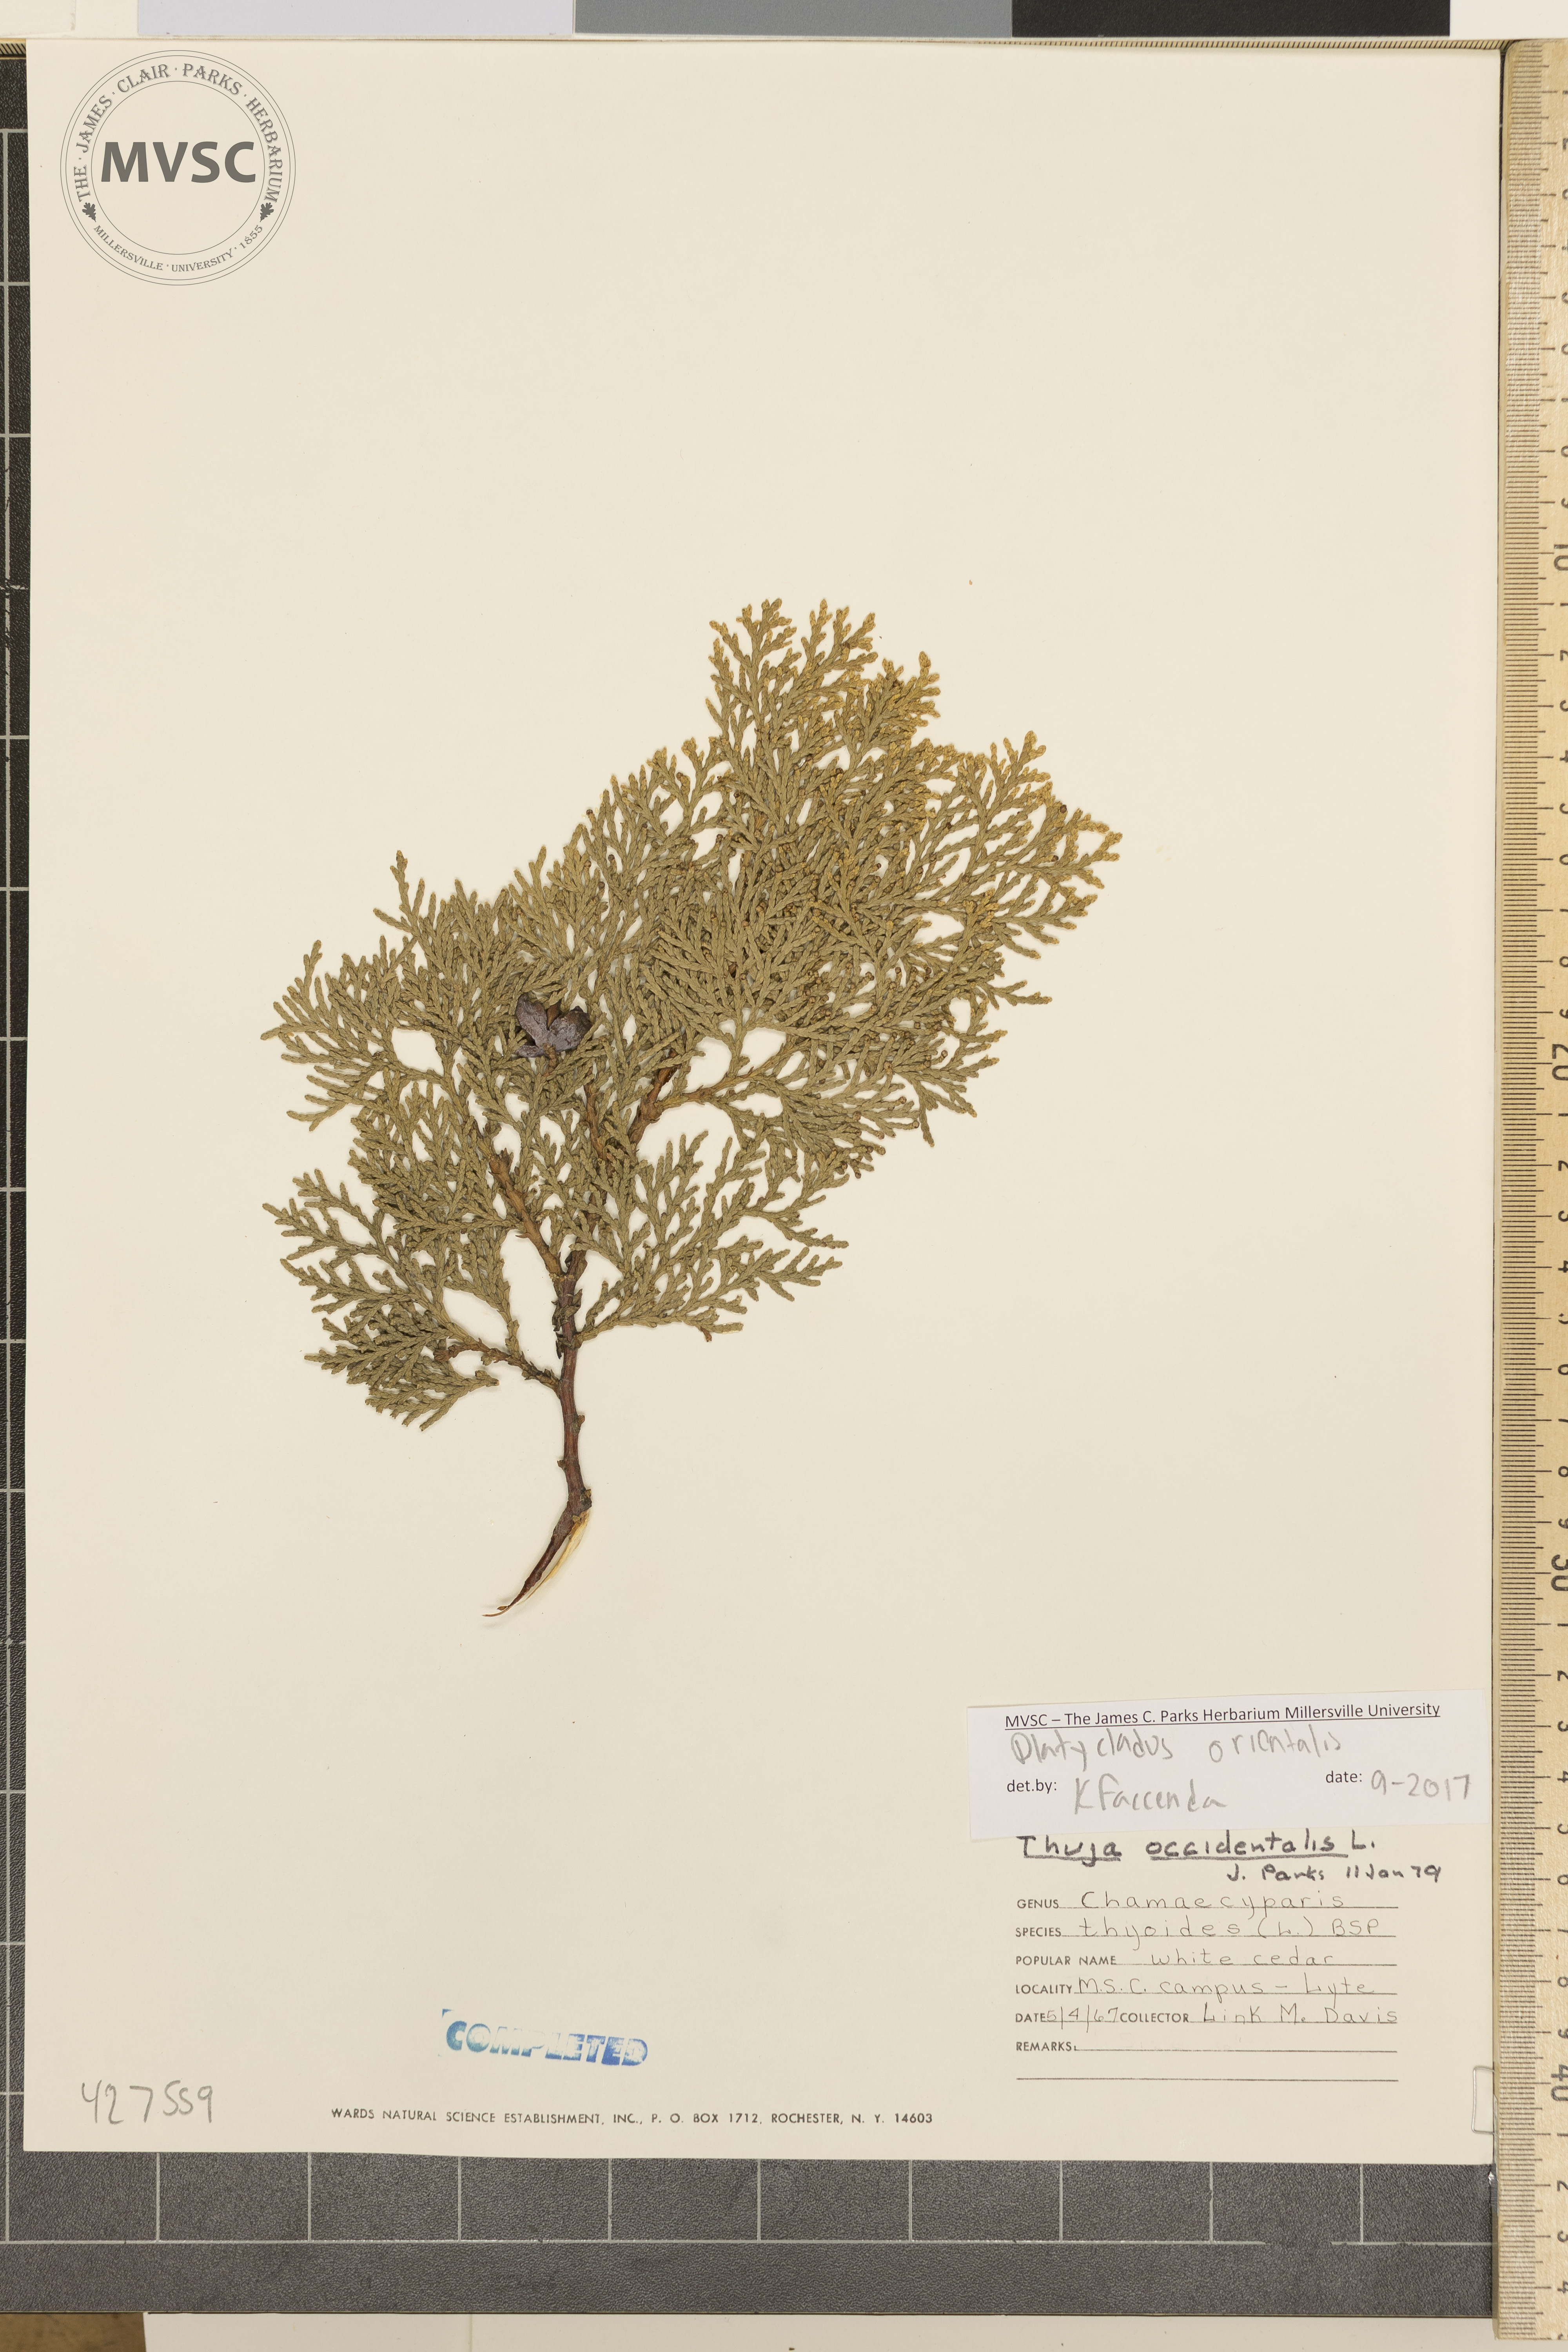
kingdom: Plantae
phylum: Tracheophyta
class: Pinopsida
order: Pinales
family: Cupressaceae
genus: Platycladus
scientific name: Platycladus orientalis
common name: Chinese thuja
